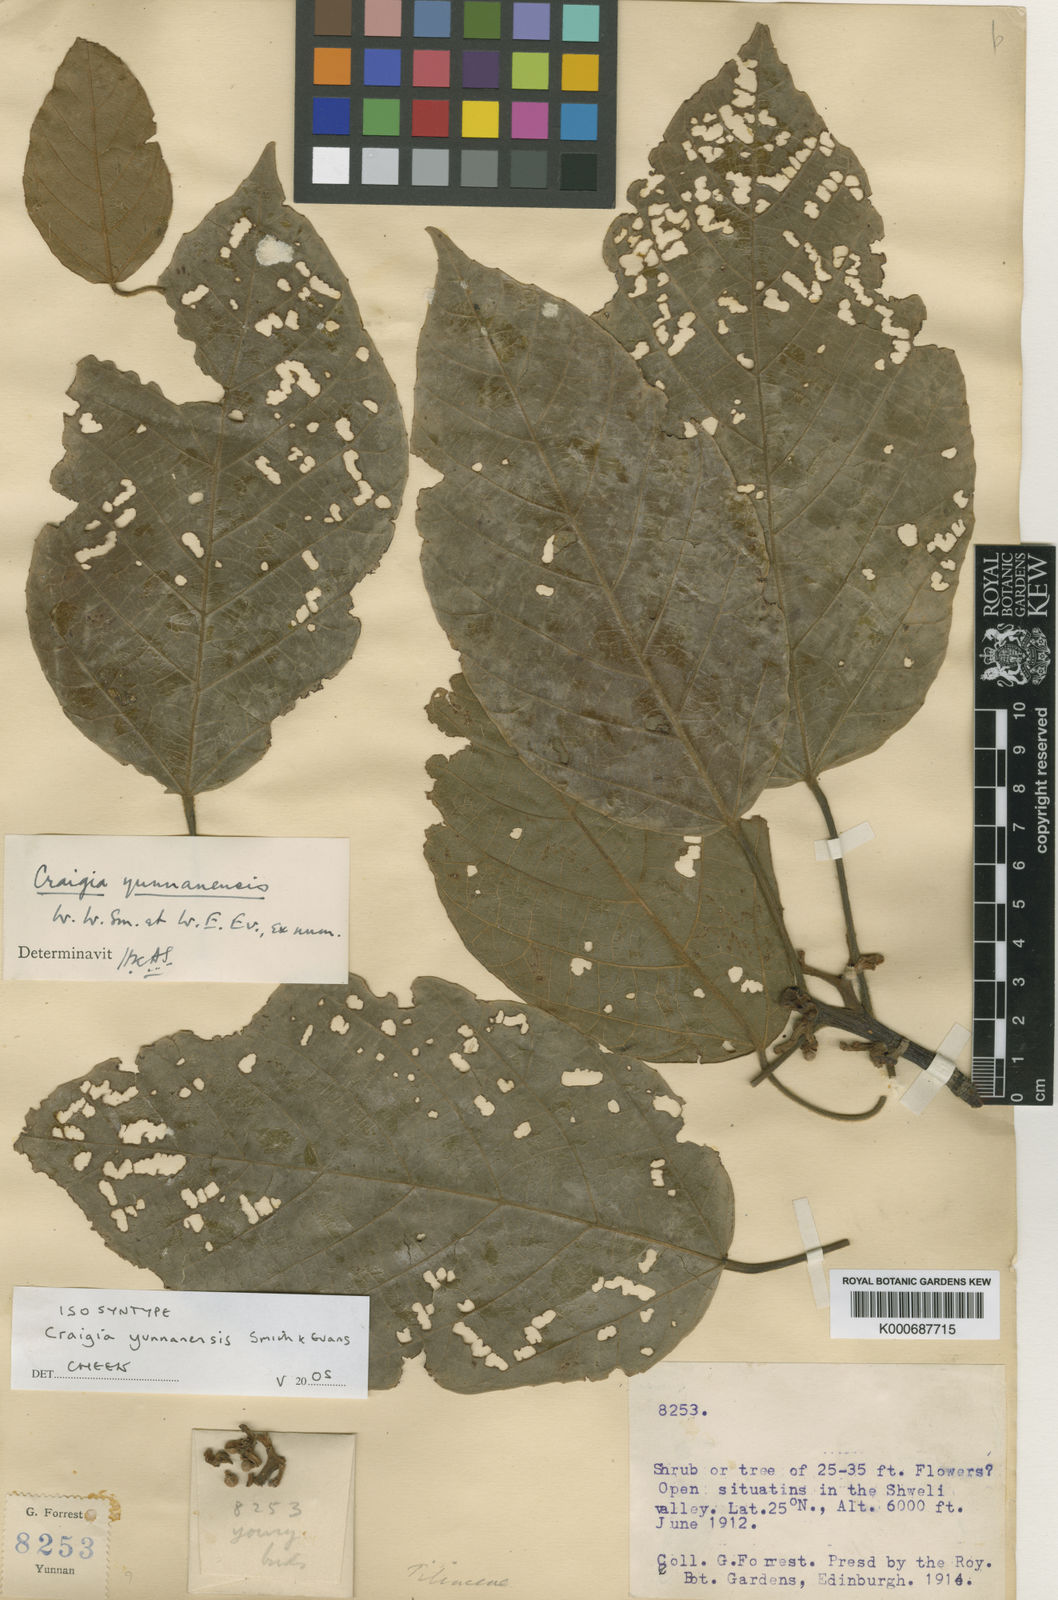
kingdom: Plantae
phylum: Tracheophyta
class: Magnoliopsida
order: Malvales
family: Malvaceae
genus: Craigia
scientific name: Craigia yunnanensis
